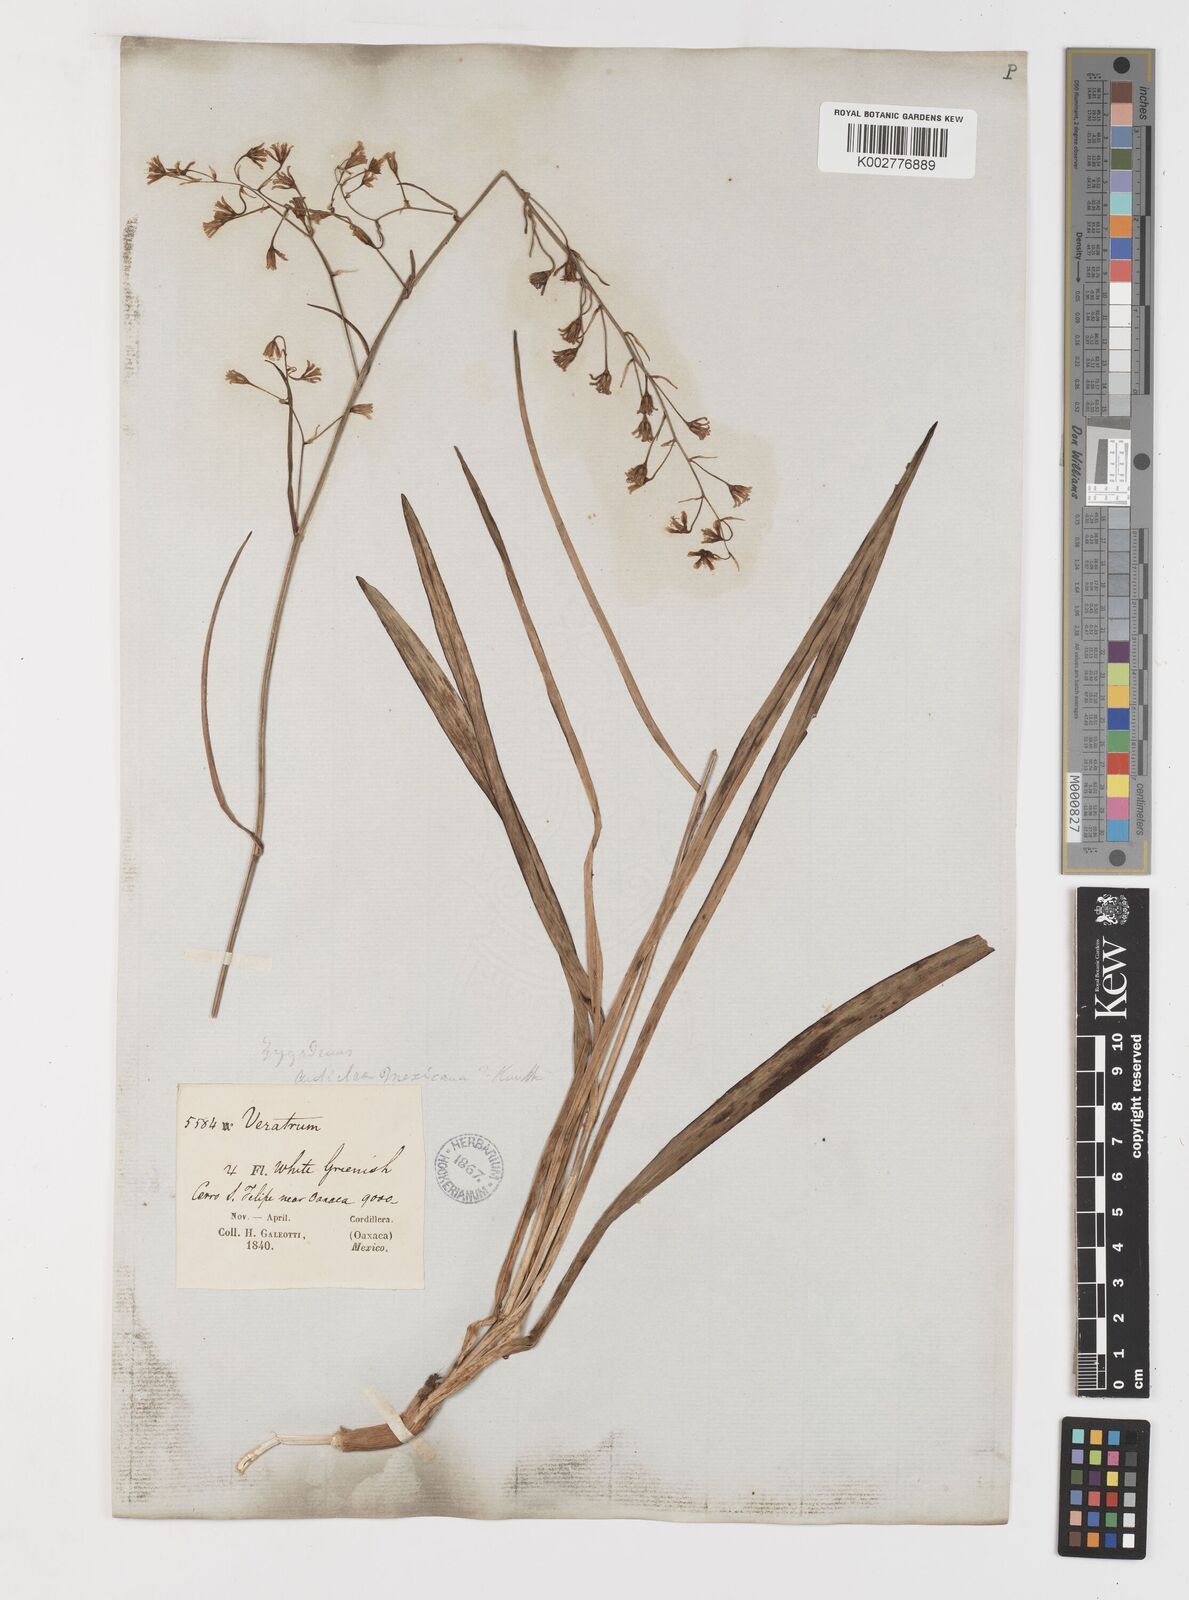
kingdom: Plantae
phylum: Tracheophyta
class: Liliopsida
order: Liliales
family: Melanthiaceae
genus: Anticlea
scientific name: Anticlea virescens
